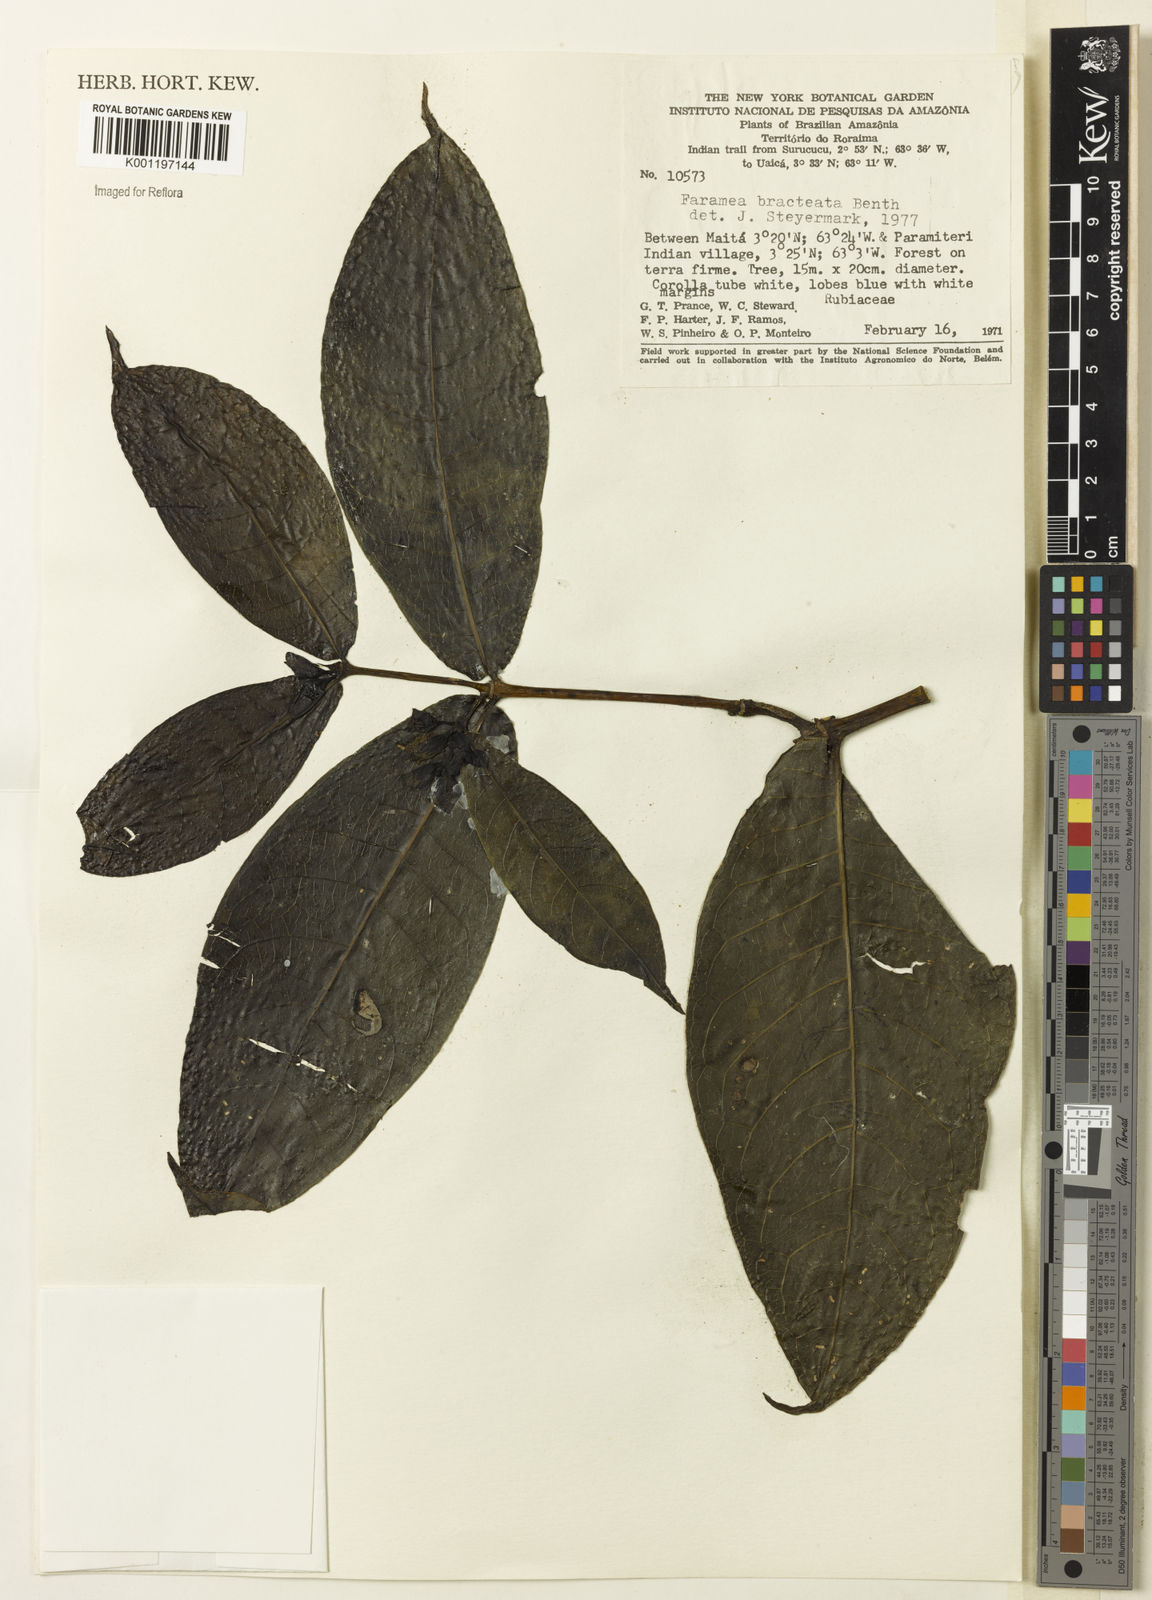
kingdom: Plantae
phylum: Tracheophyta
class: Magnoliopsida
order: Gentianales
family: Rubiaceae
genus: Faramea
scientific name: Faramea bracteata
